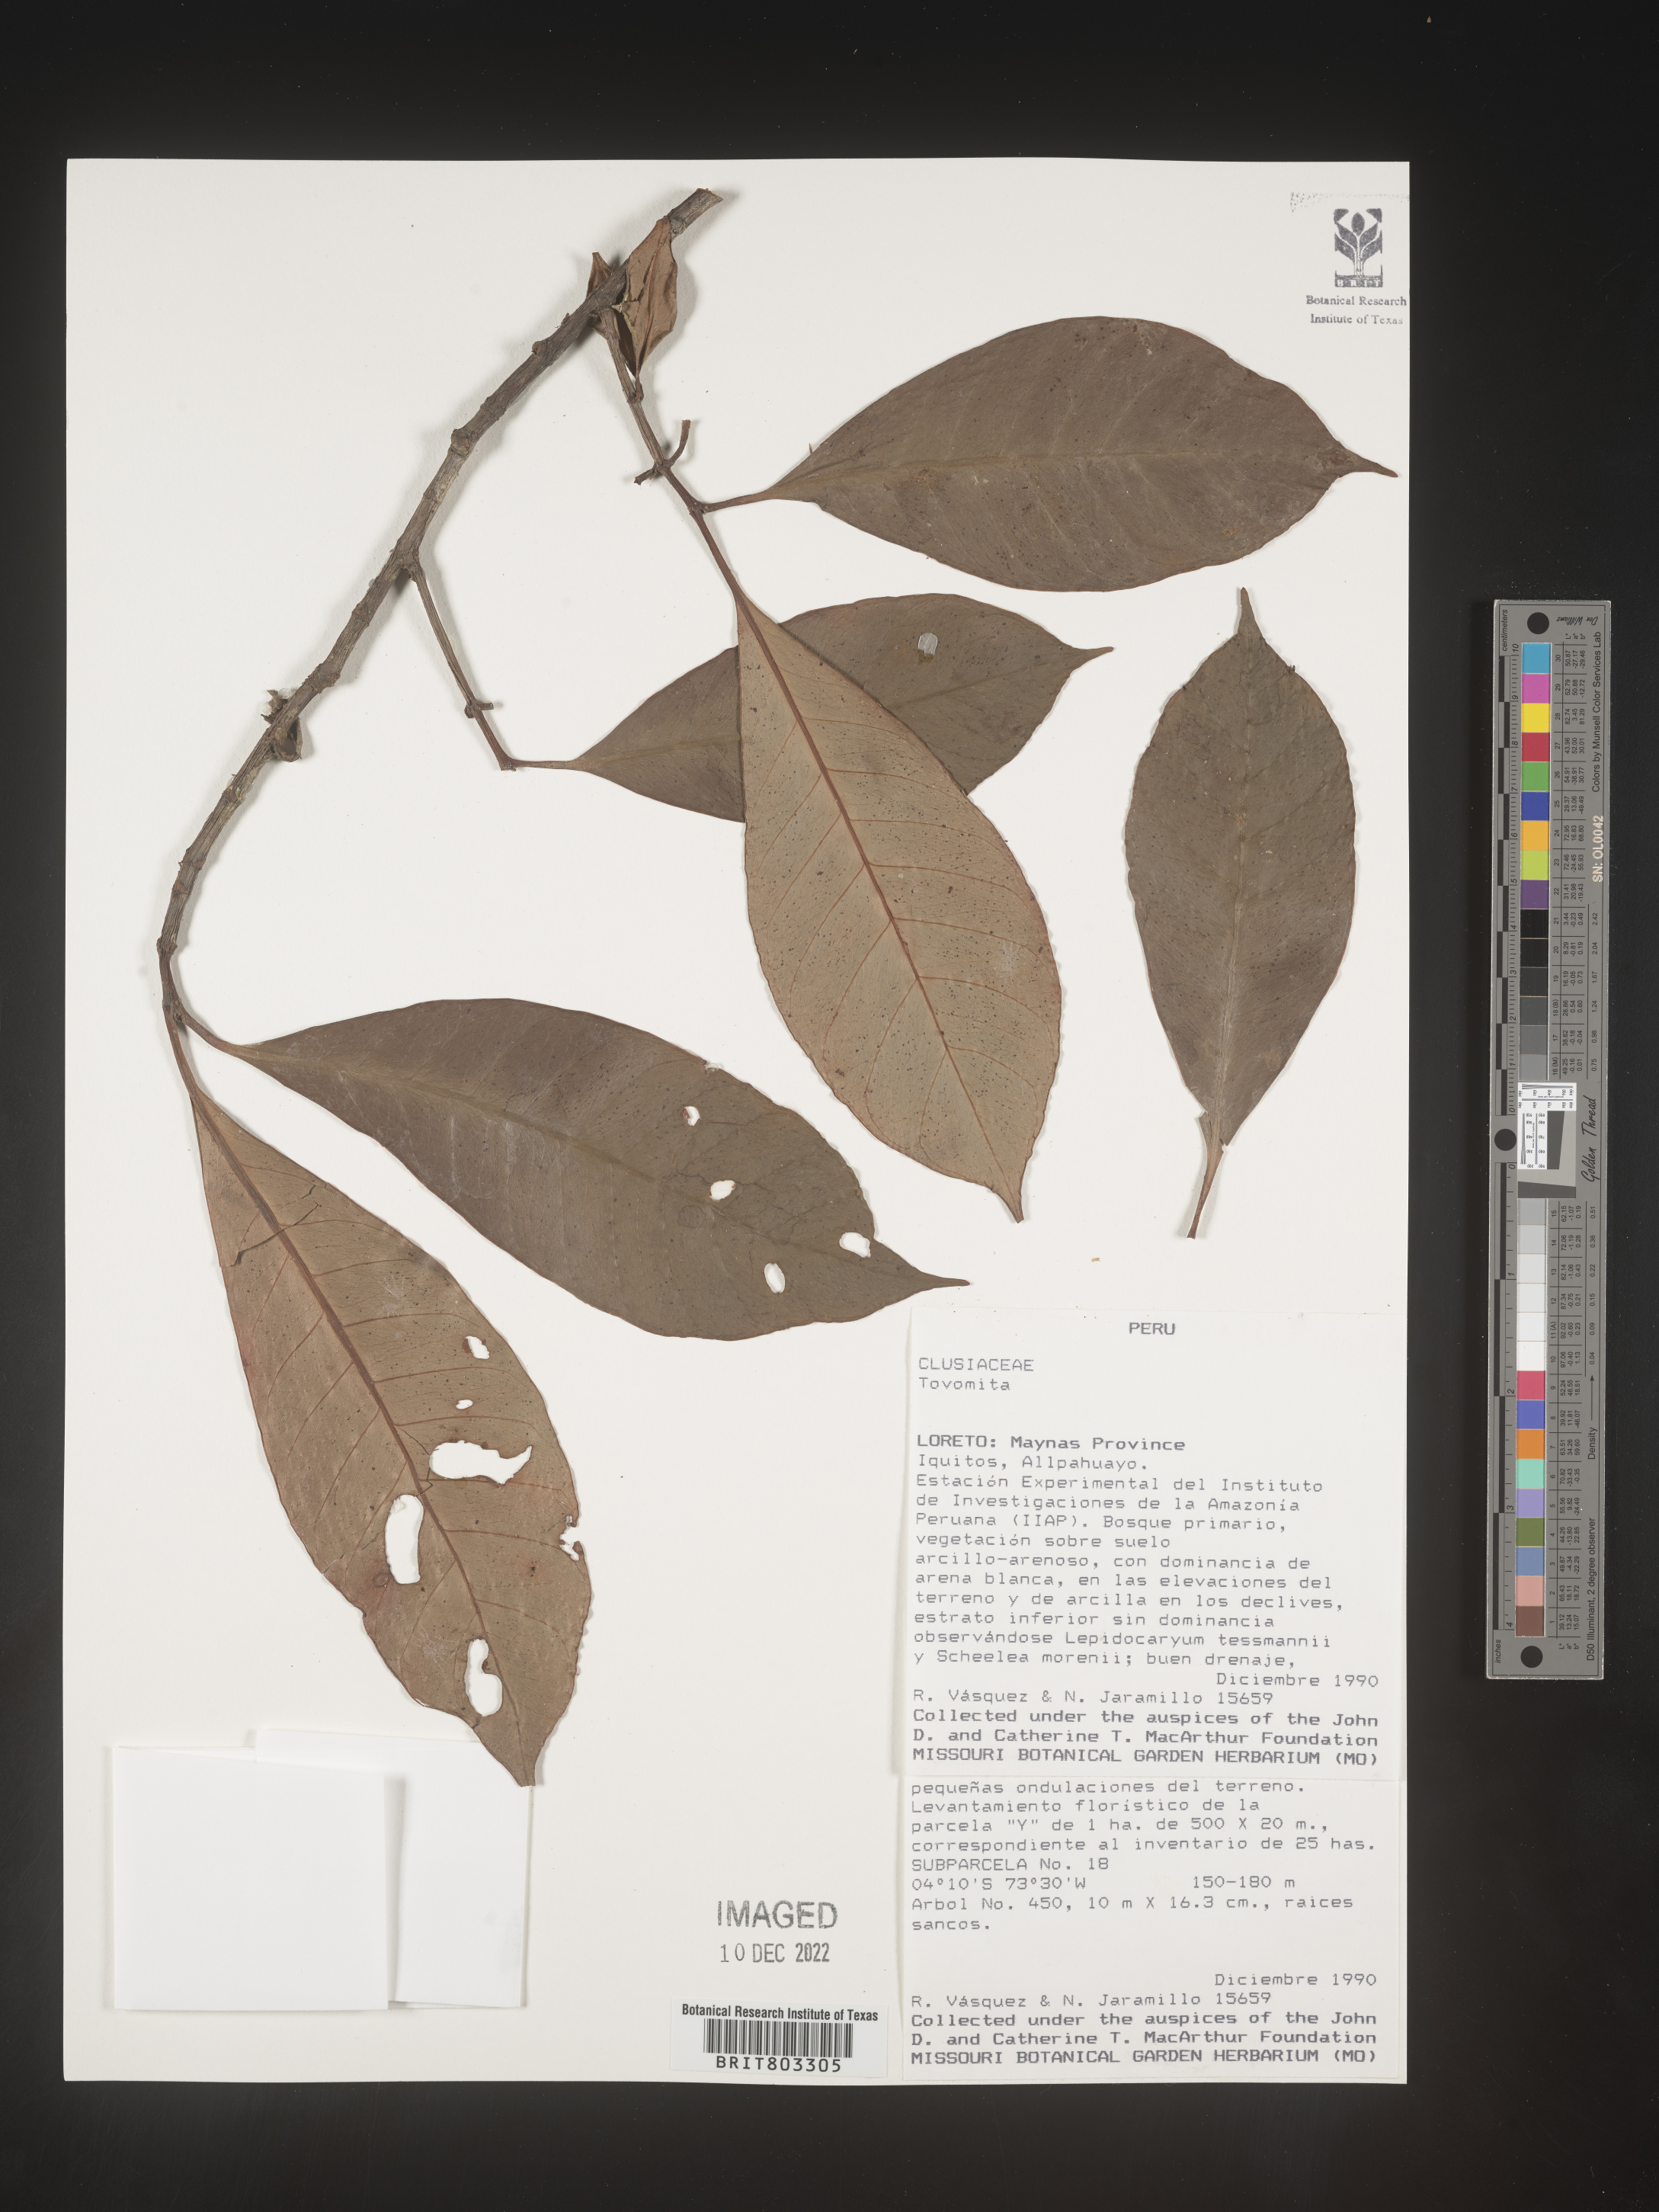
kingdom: Plantae
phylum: Tracheophyta
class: Magnoliopsida
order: Malpighiales
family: Clusiaceae
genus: Tovomita
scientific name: Tovomita
